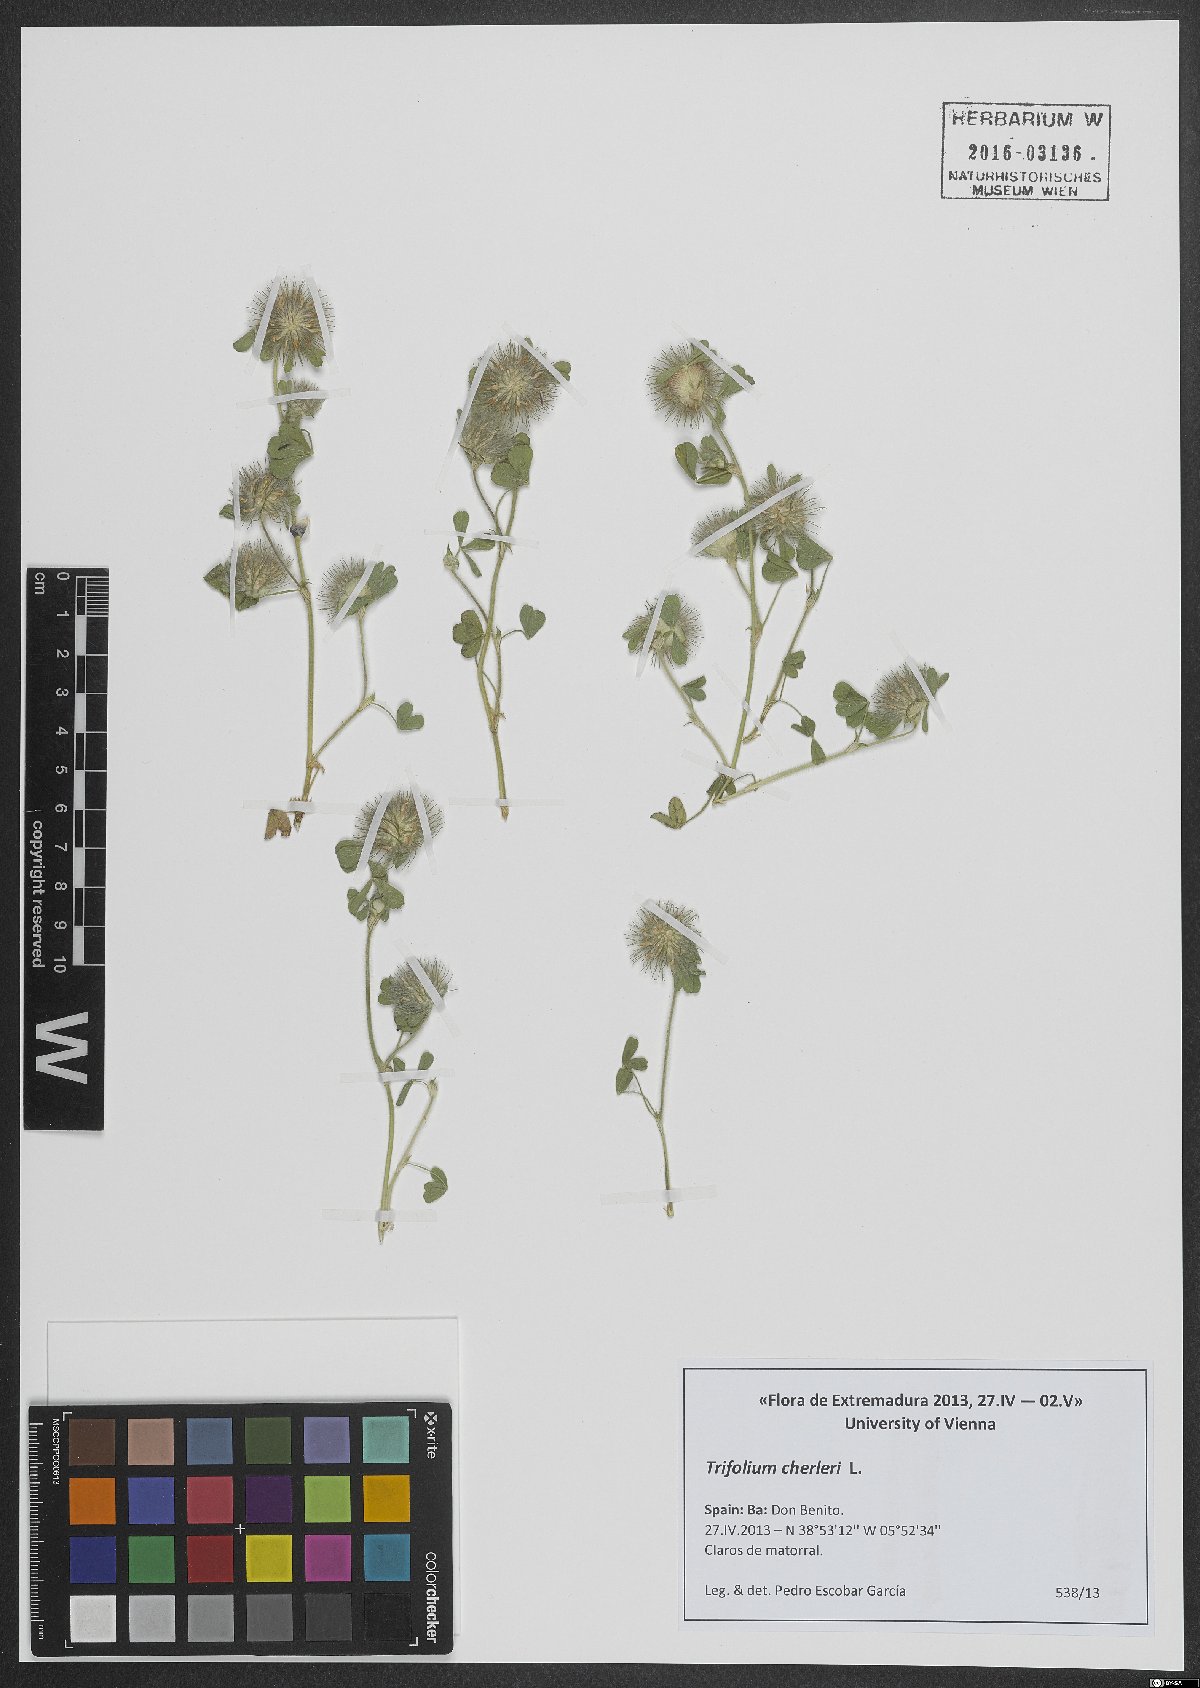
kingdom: Plantae
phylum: Tracheophyta
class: Magnoliopsida
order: Fabales
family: Fabaceae
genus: Trifolium
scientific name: Trifolium cherleri
